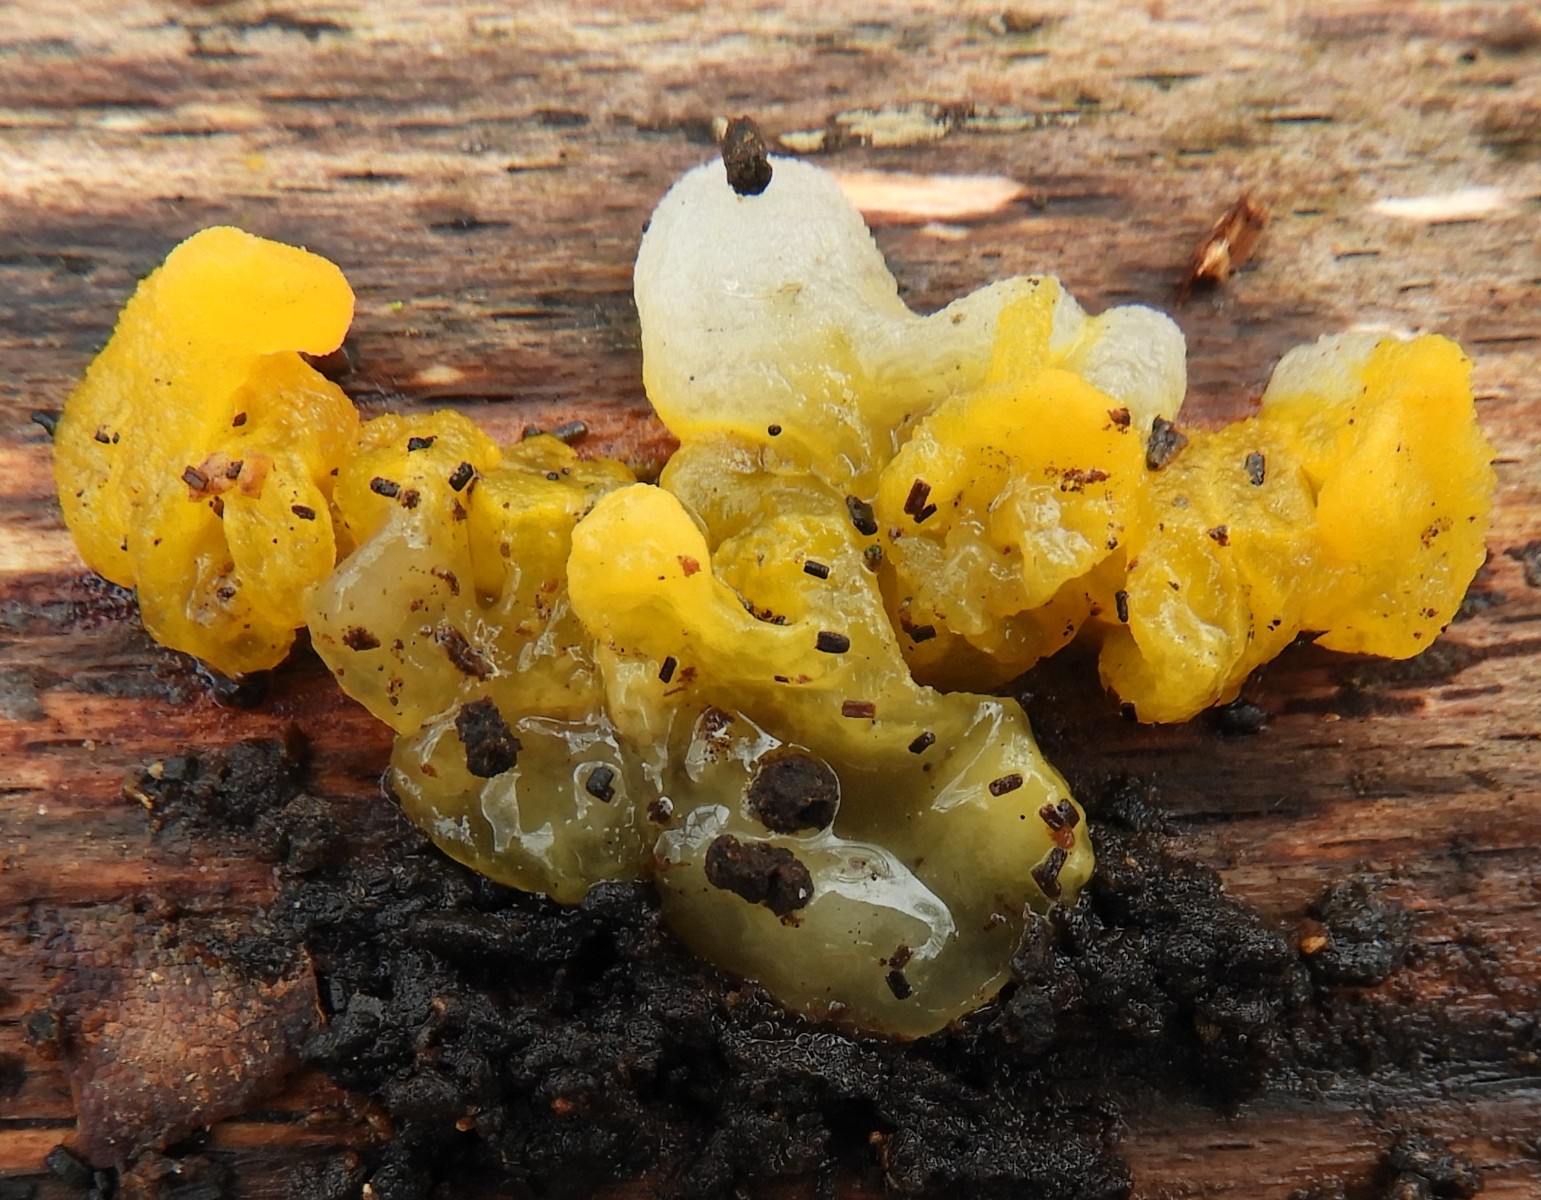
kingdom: Fungi
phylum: Basidiomycota
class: Tremellomycetes
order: Tremellales
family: Tremellaceae
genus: Tremella
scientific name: Tremella mesenterica
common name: gul bævresvamp
